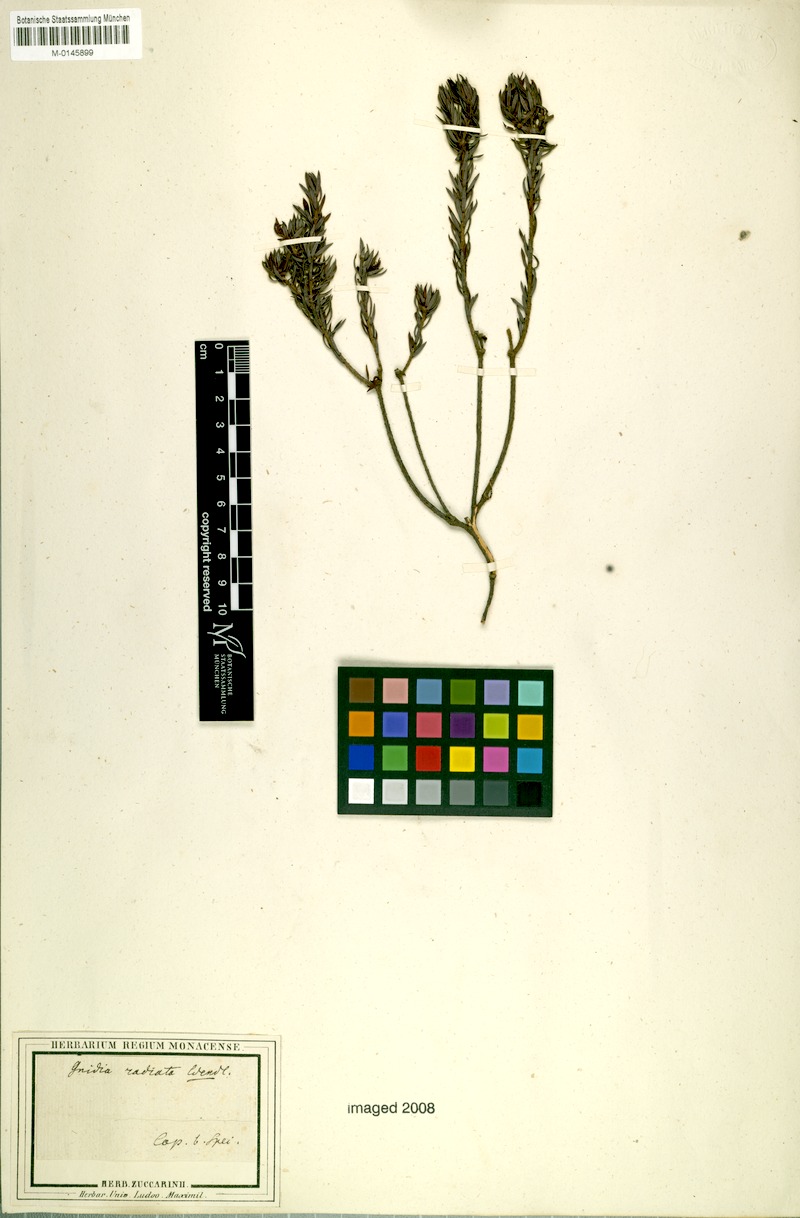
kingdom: Plantae
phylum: Tracheophyta
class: Magnoliopsida
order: Malvales
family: Thymelaeaceae
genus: Gnidia
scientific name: Gnidia subulata
